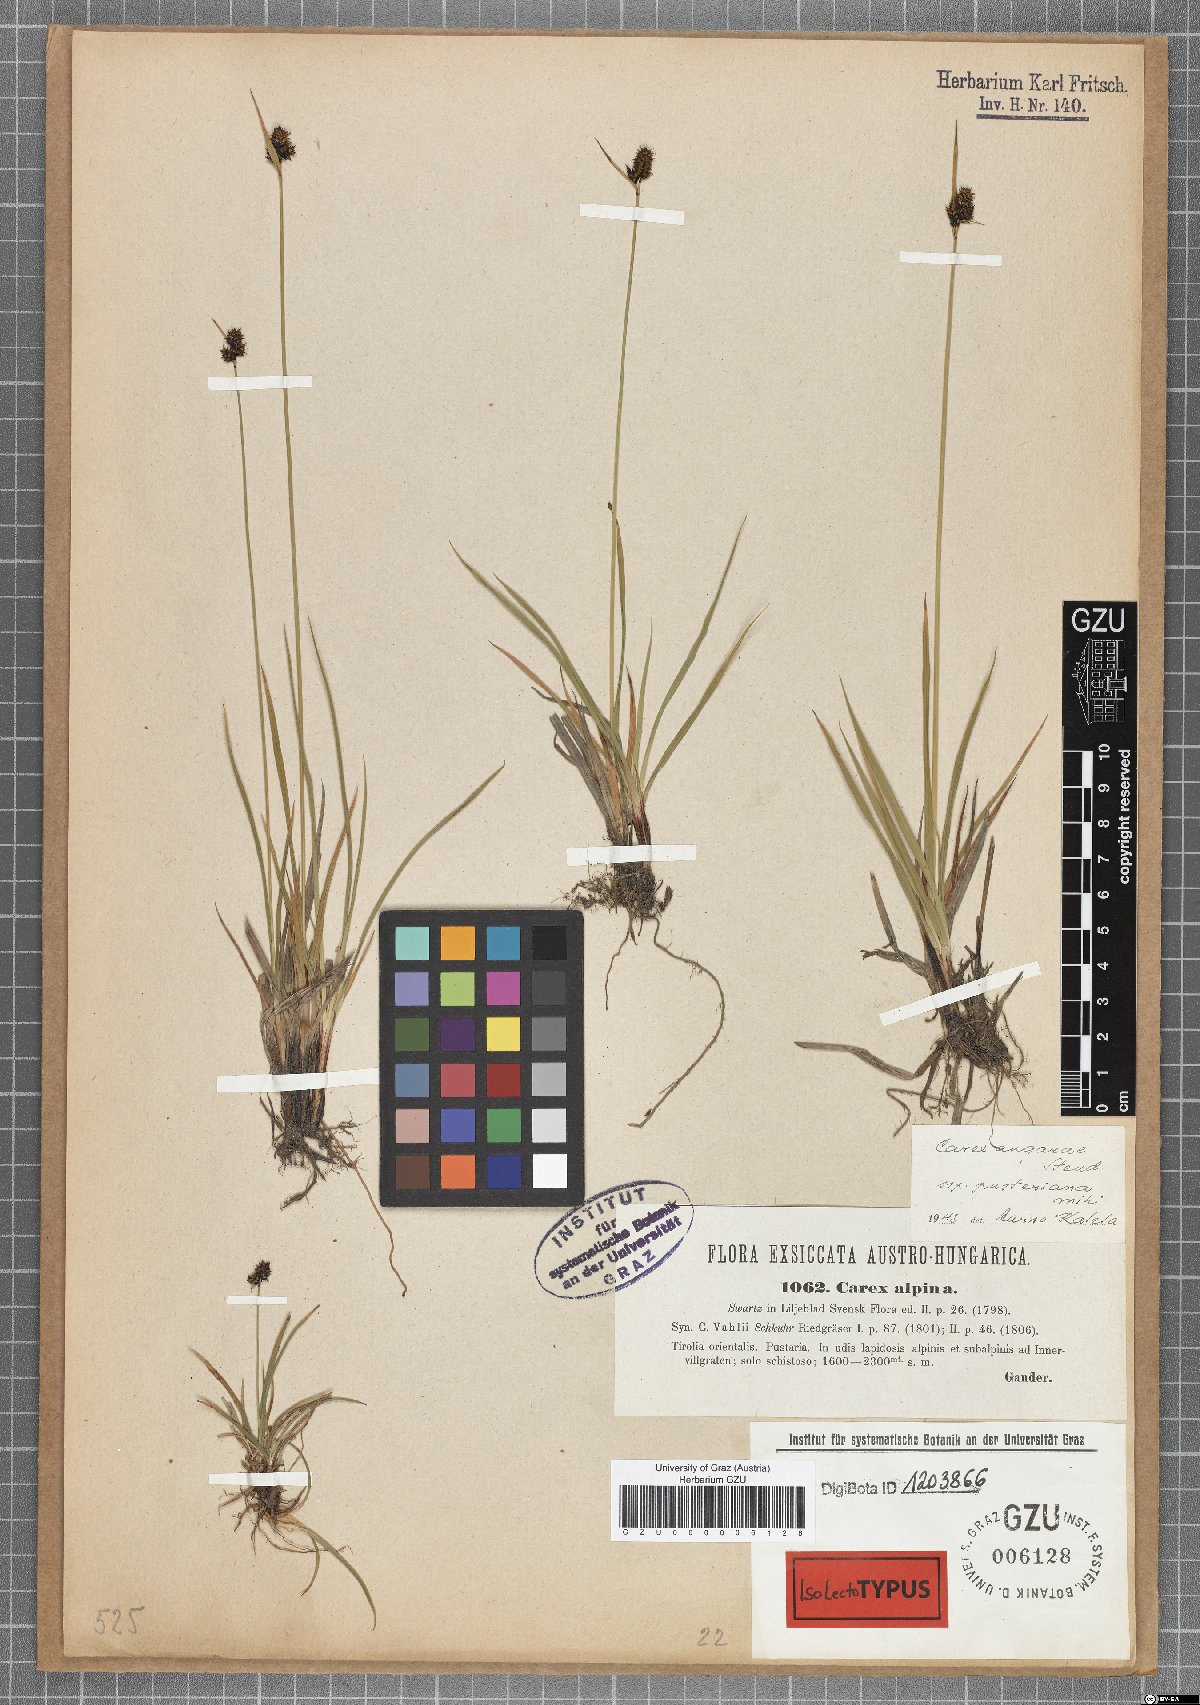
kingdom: Plantae
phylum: Tracheophyta
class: Liliopsida
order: Poales
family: Cyperaceae
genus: Carex
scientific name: Carex norvegica
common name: Close-headed alpine-sedge
